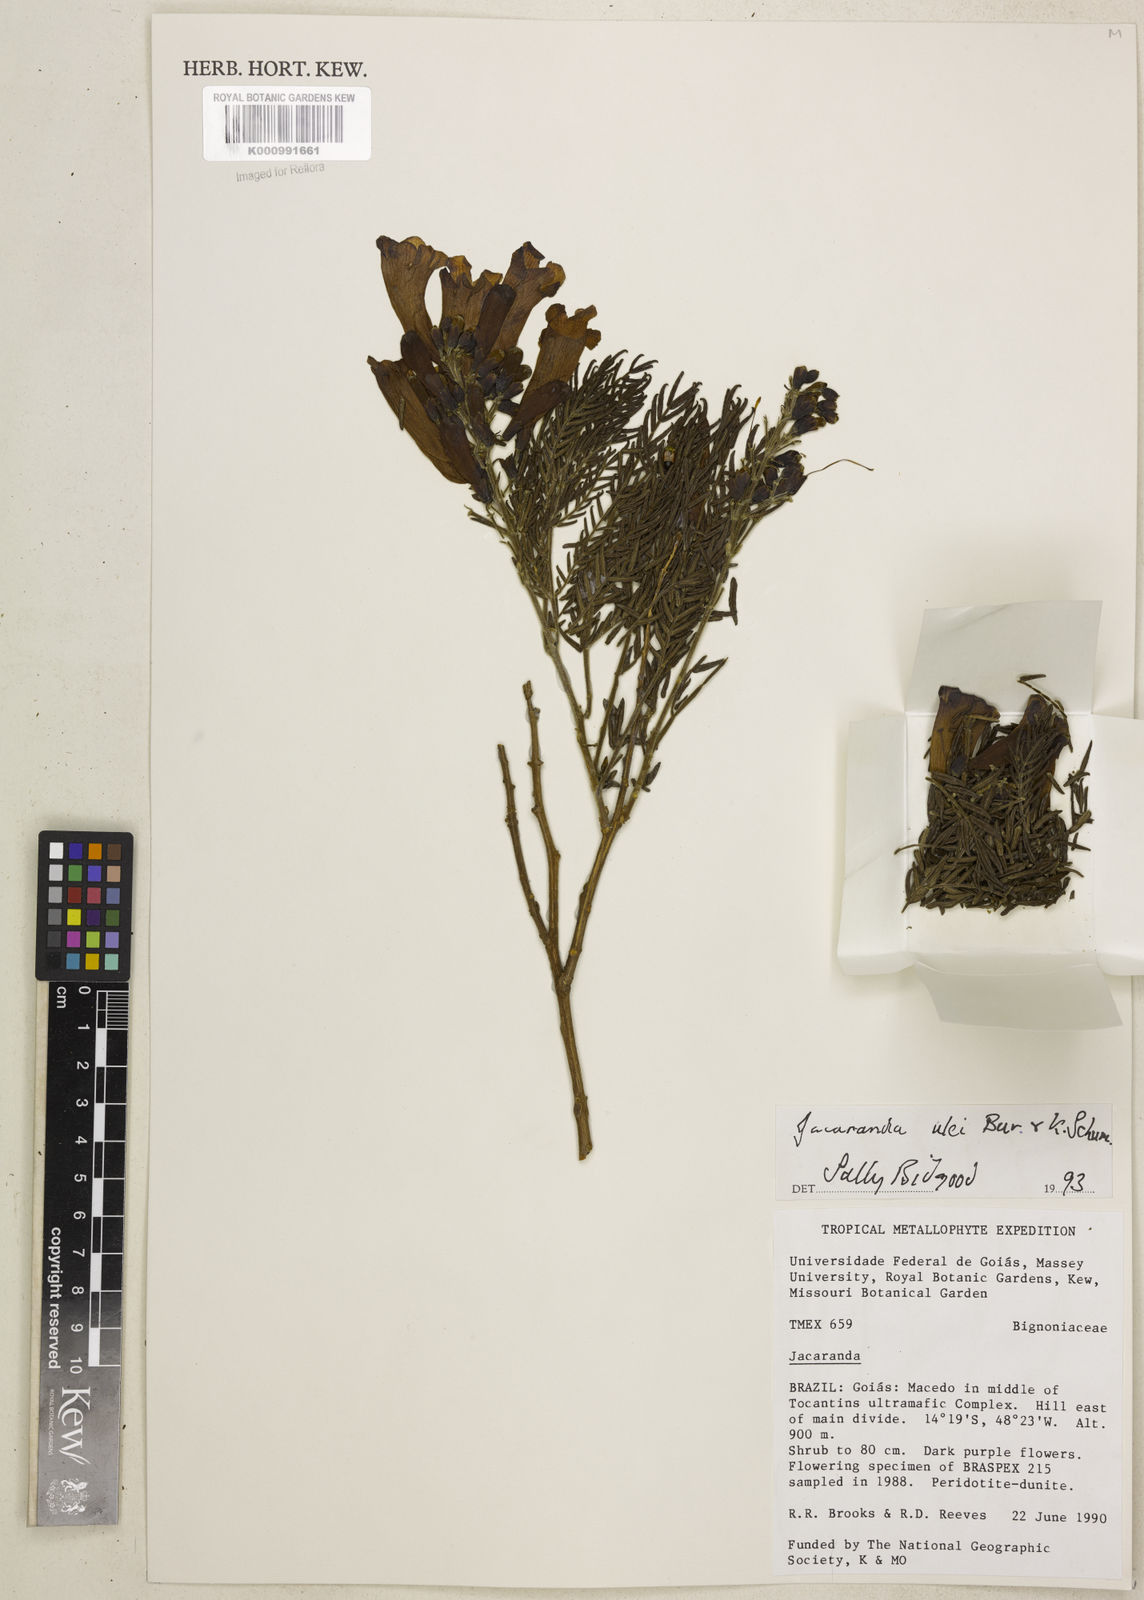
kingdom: Plantae
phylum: Tracheophyta
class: Magnoliopsida
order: Lamiales
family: Bignoniaceae
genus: Jacaranda
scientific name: Jacaranda ulei
